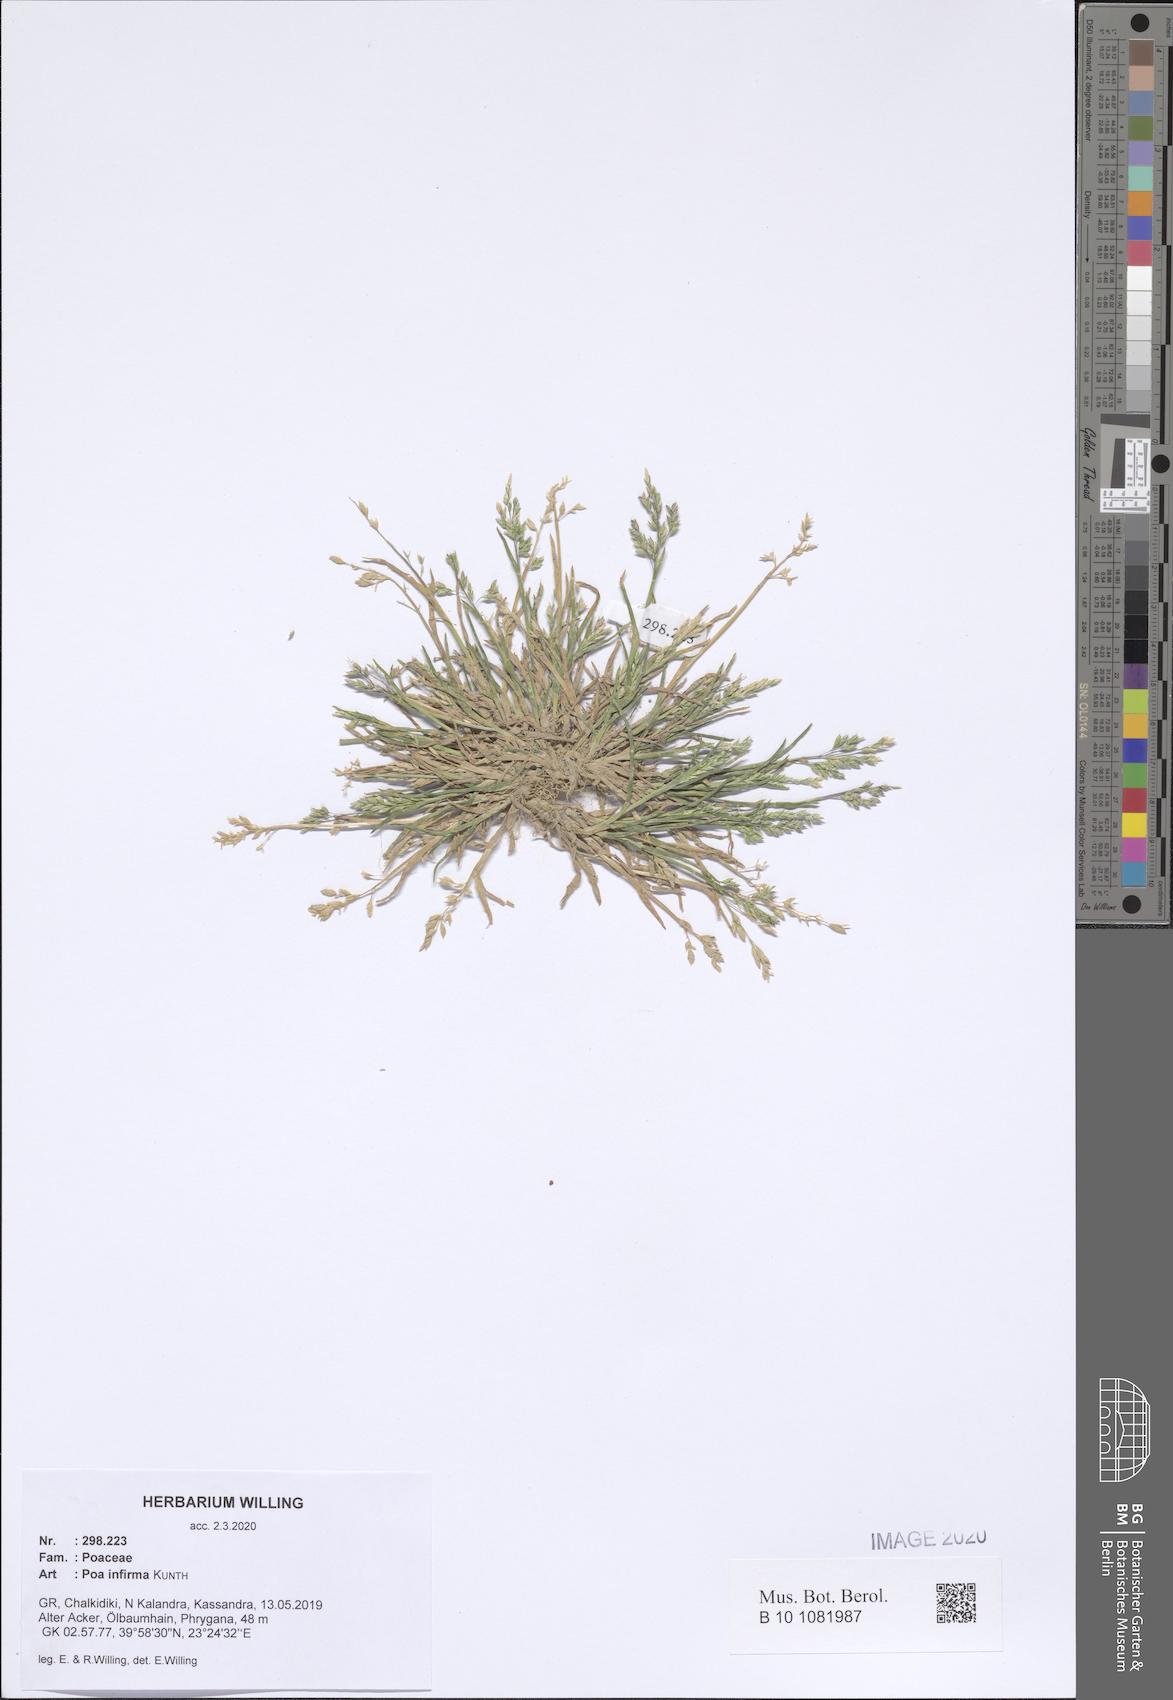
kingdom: Plantae
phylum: Tracheophyta
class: Liliopsida
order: Poales
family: Poaceae
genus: Poa
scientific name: Poa infirma
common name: Weak bluegrass
